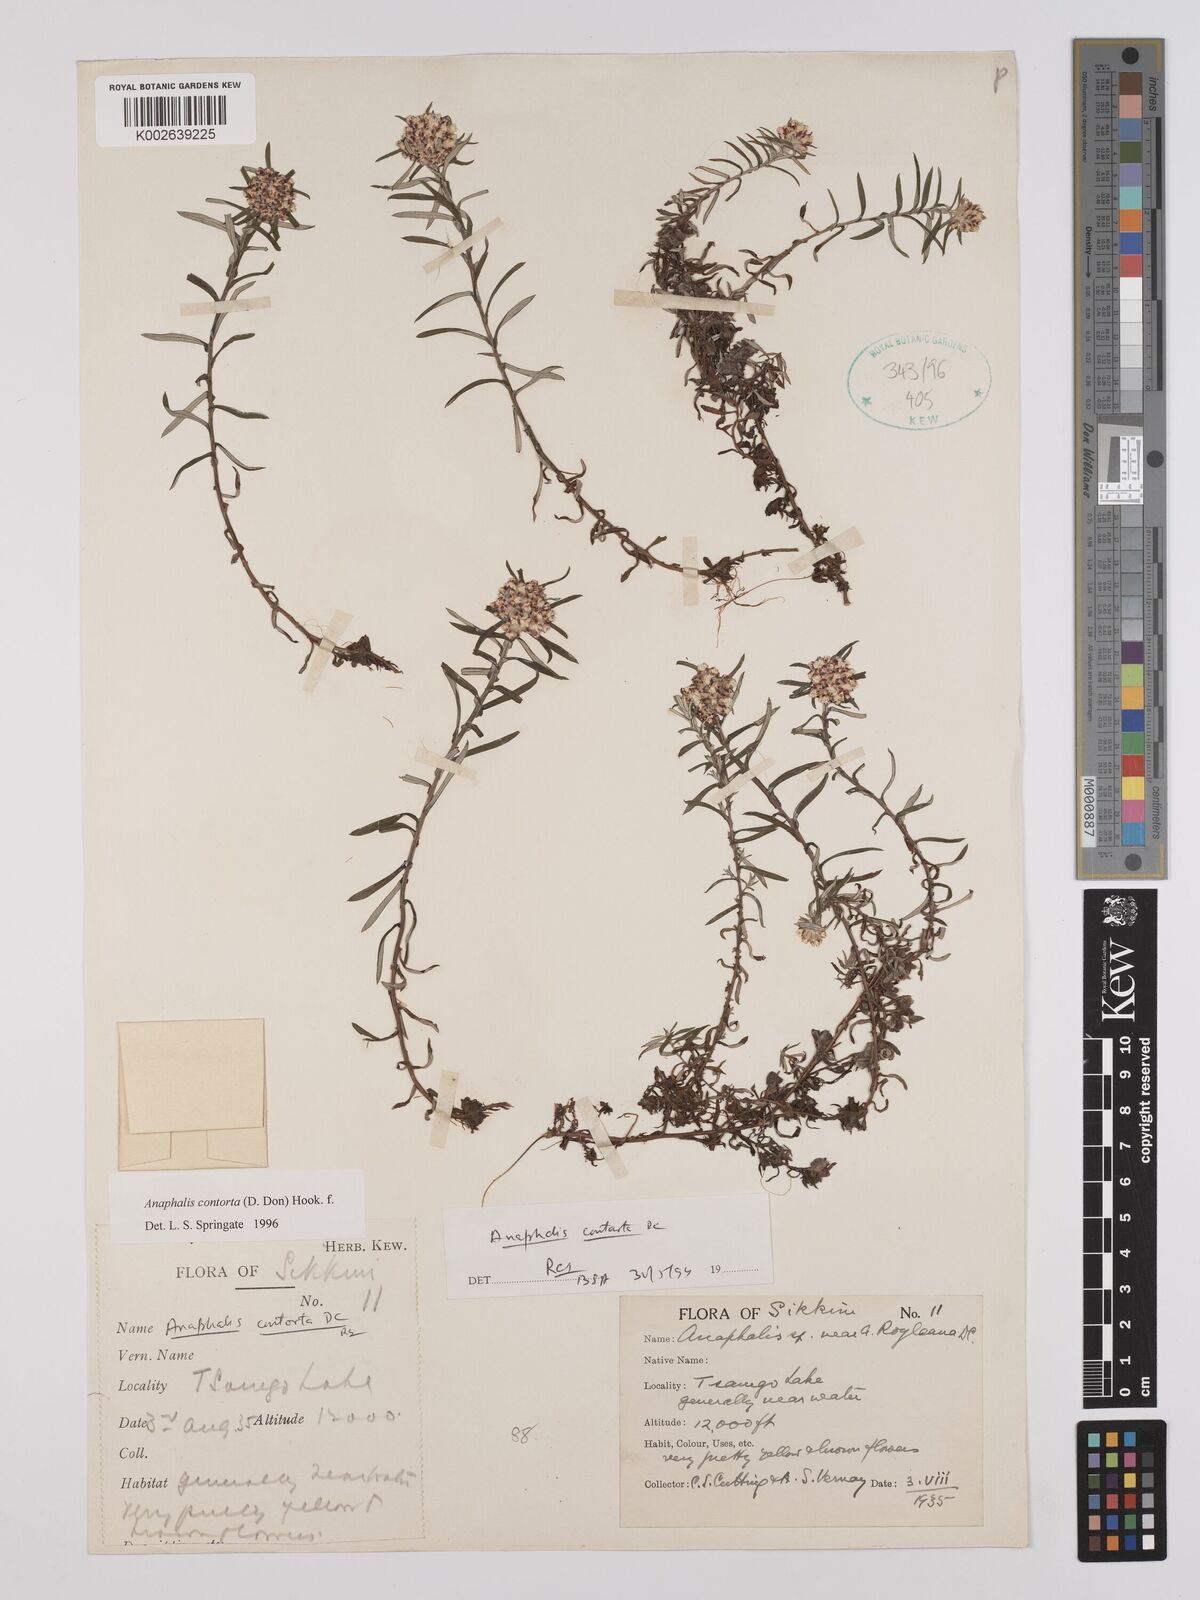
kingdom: Plantae
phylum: Tracheophyta
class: Magnoliopsida
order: Asterales
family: Asteraceae
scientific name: Asteraceae
